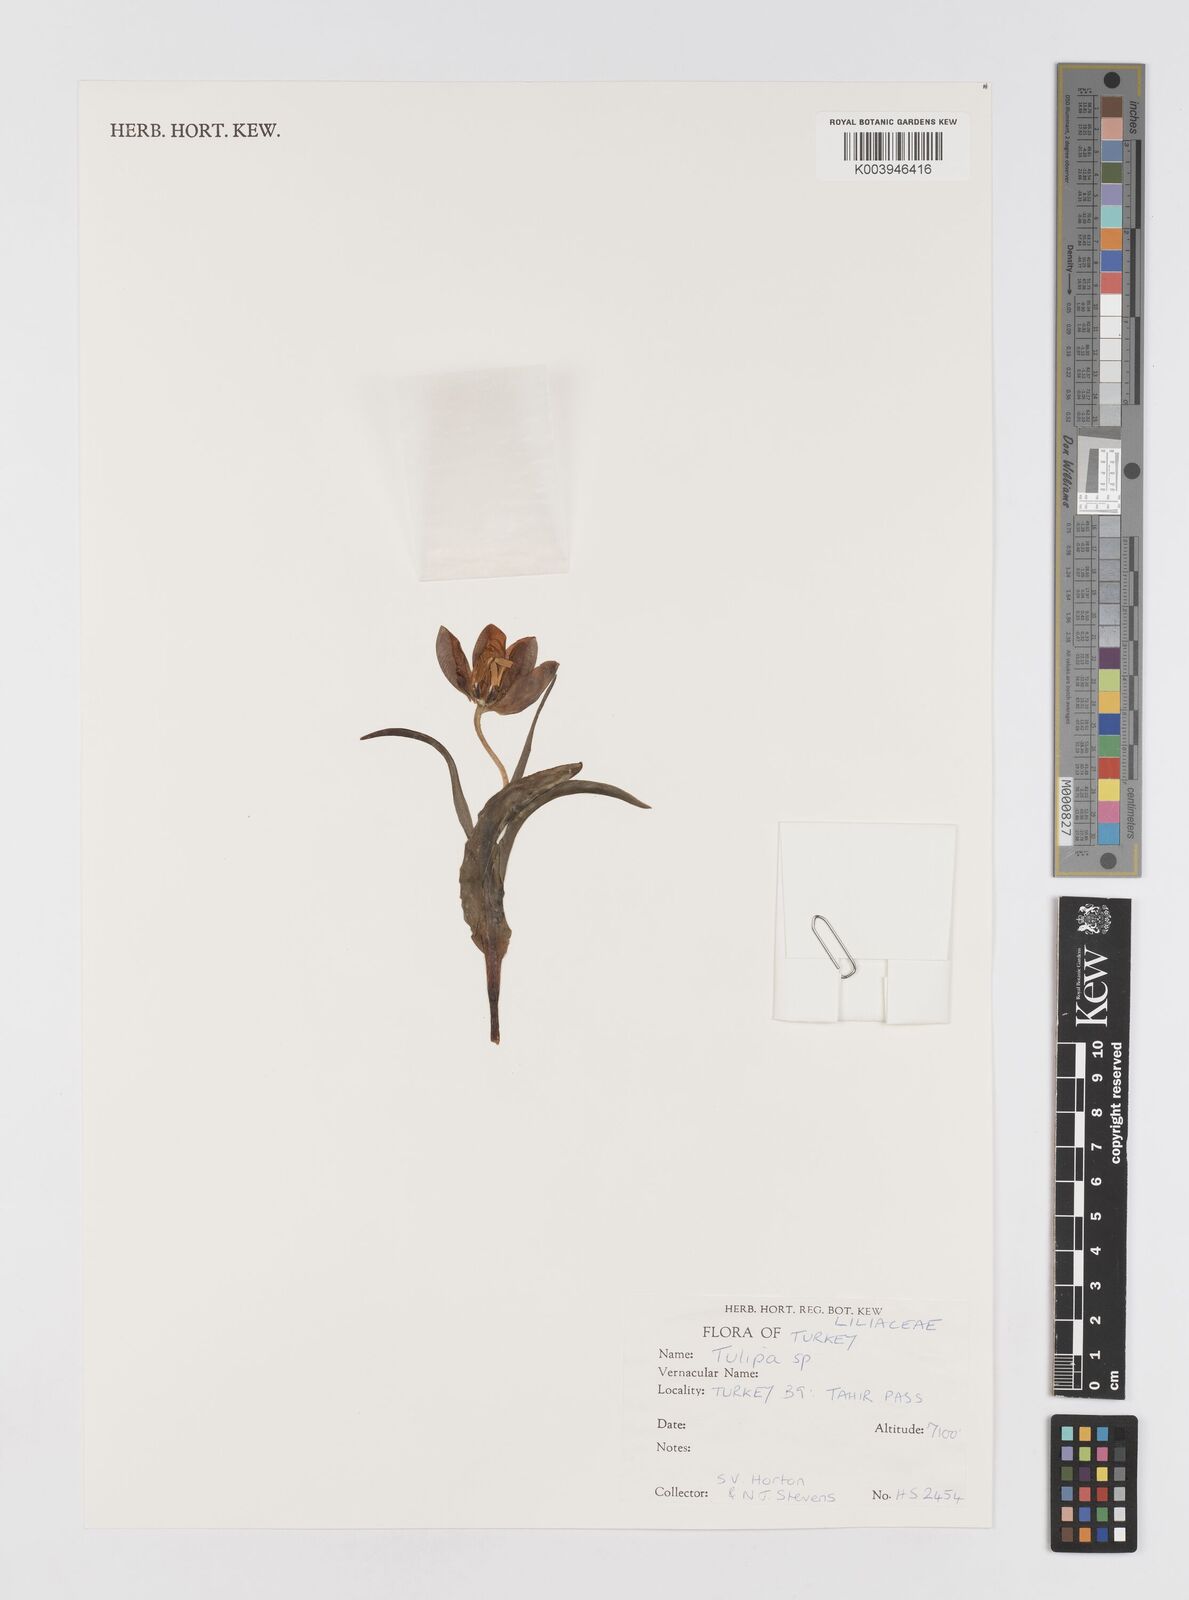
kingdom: Plantae
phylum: Tracheophyta
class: Liliopsida
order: Liliales
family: Liliaceae
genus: Tulipa
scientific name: Tulipa
